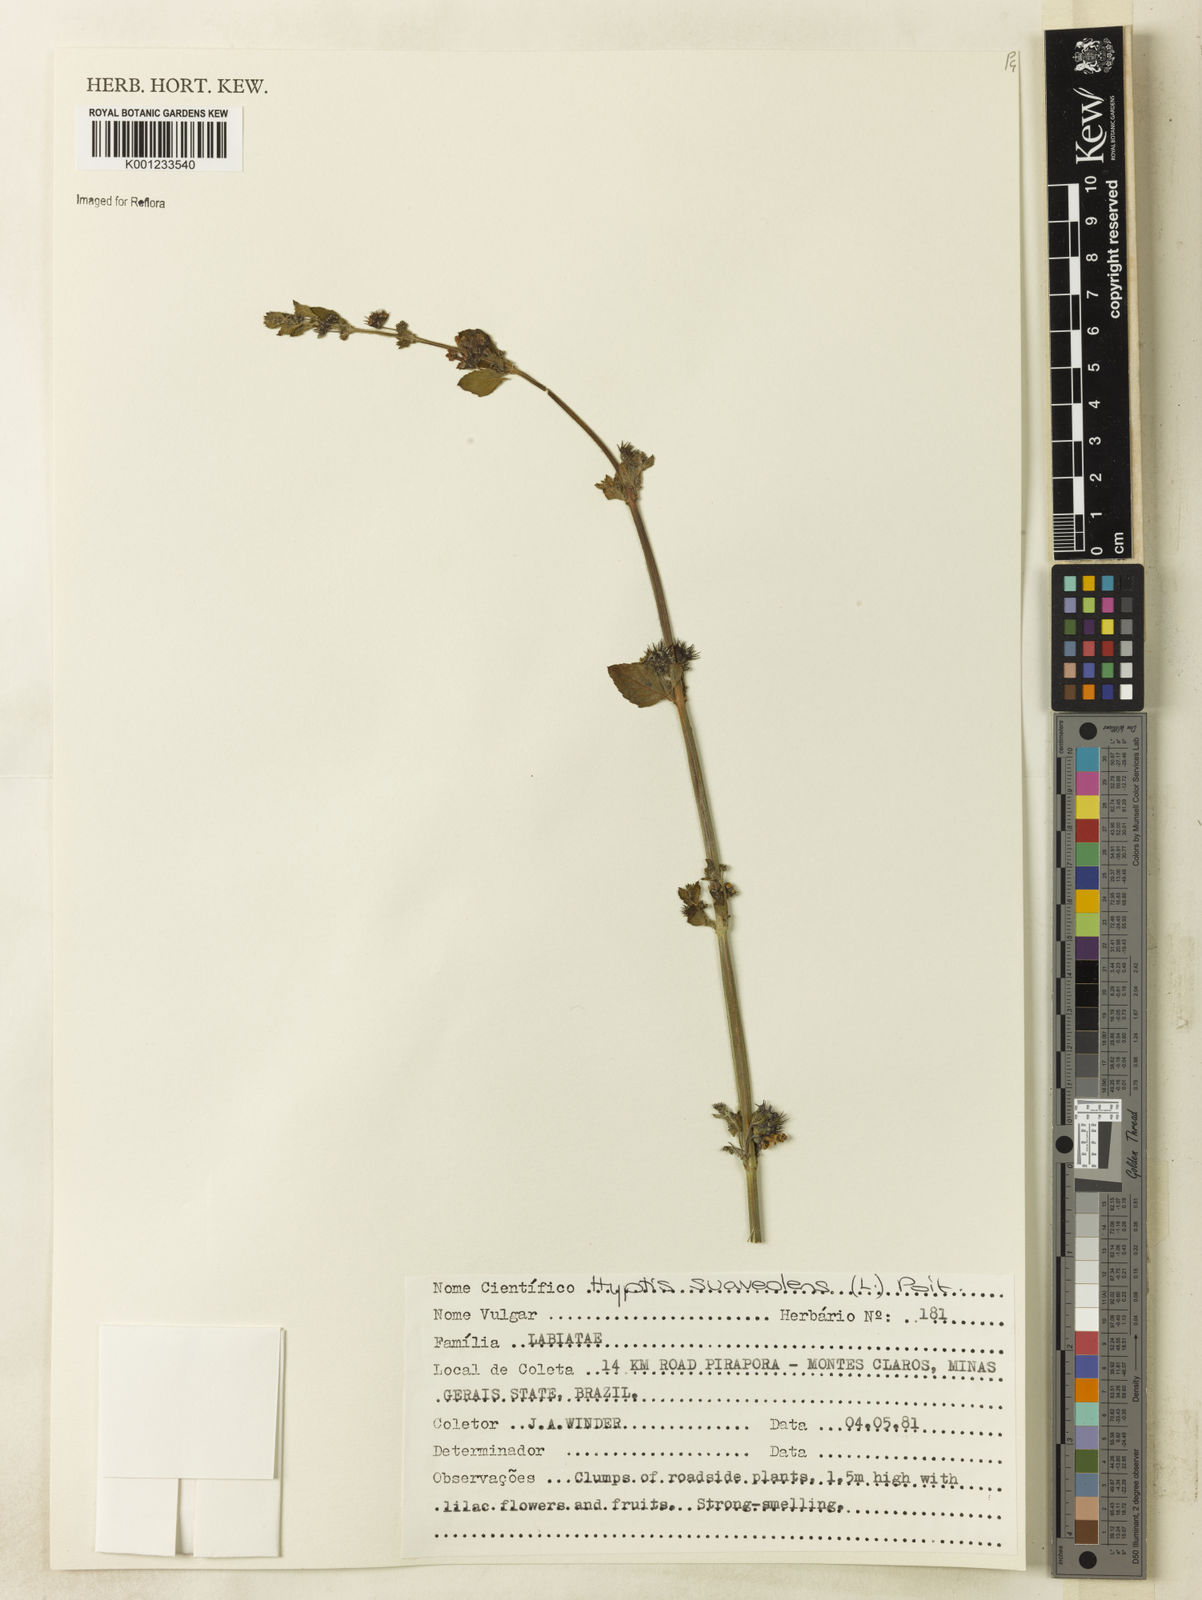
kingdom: Plantae
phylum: Tracheophyta
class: Magnoliopsida
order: Lamiales
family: Lamiaceae
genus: Mesosphaerum
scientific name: Mesosphaerum suaveolens
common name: Pignut
